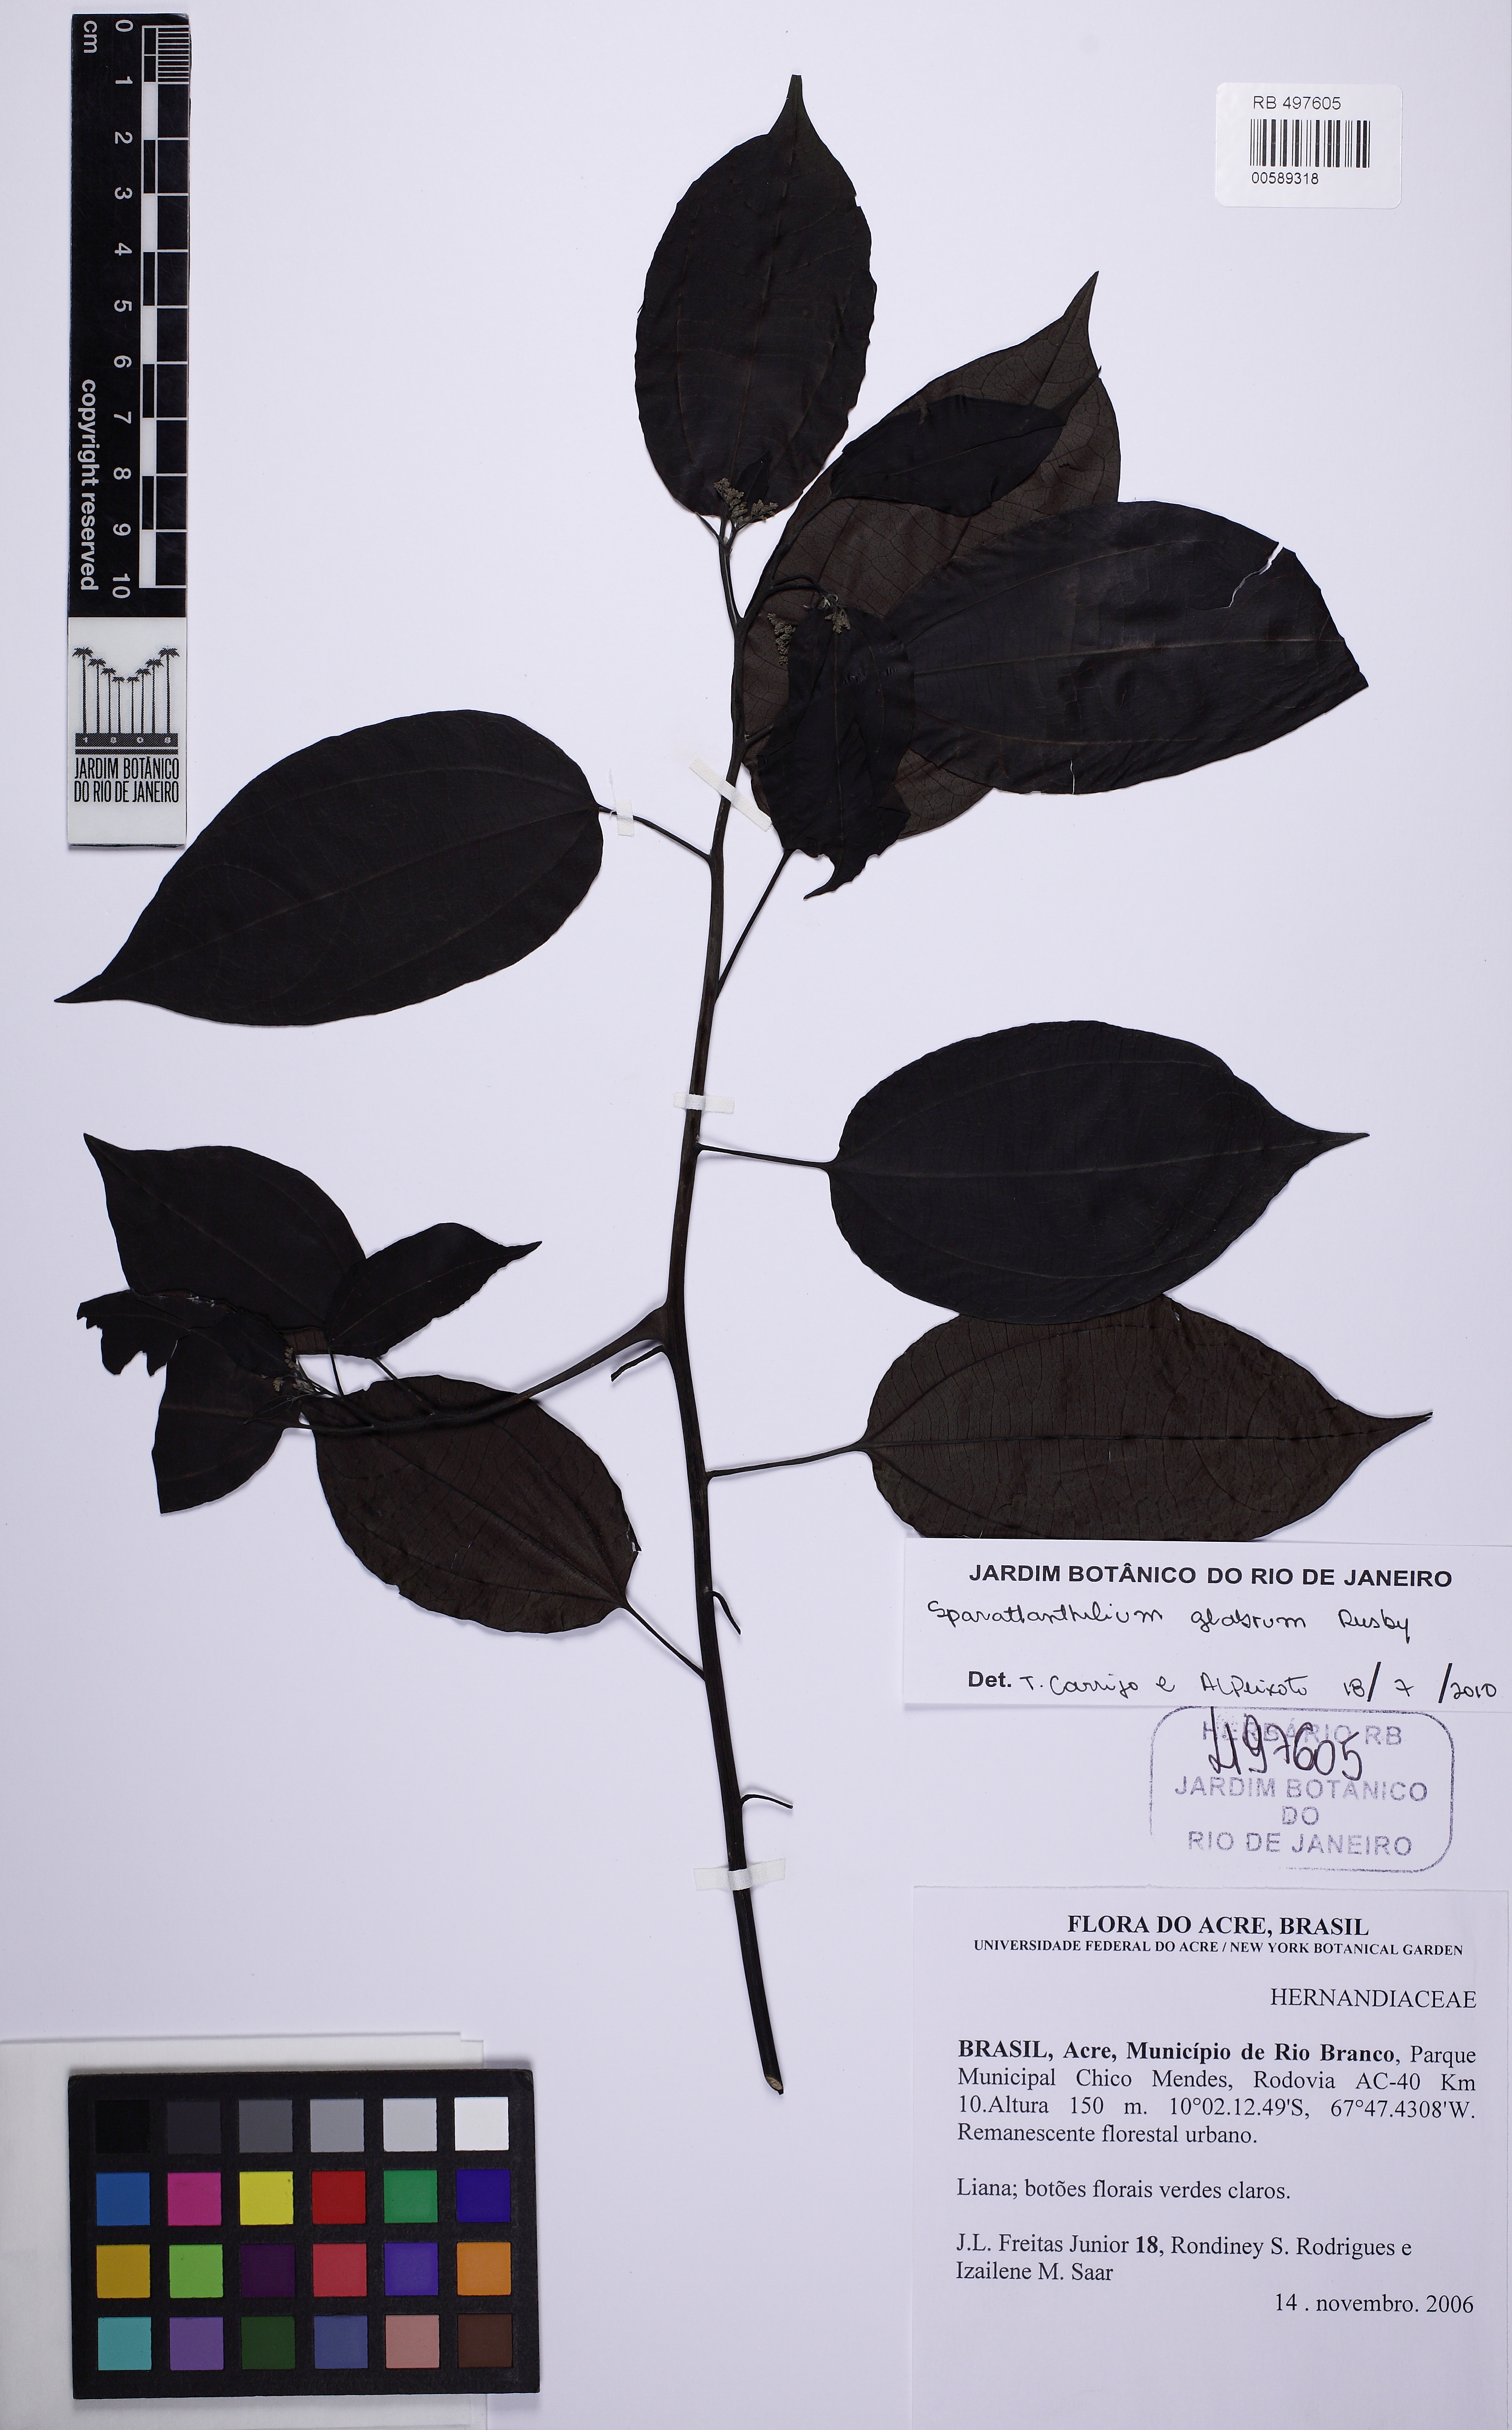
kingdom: Plantae
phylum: Tracheophyta
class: Magnoliopsida
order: Laurales
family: Hernandiaceae
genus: Sparattanthelium
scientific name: Sparattanthelium glabrum
